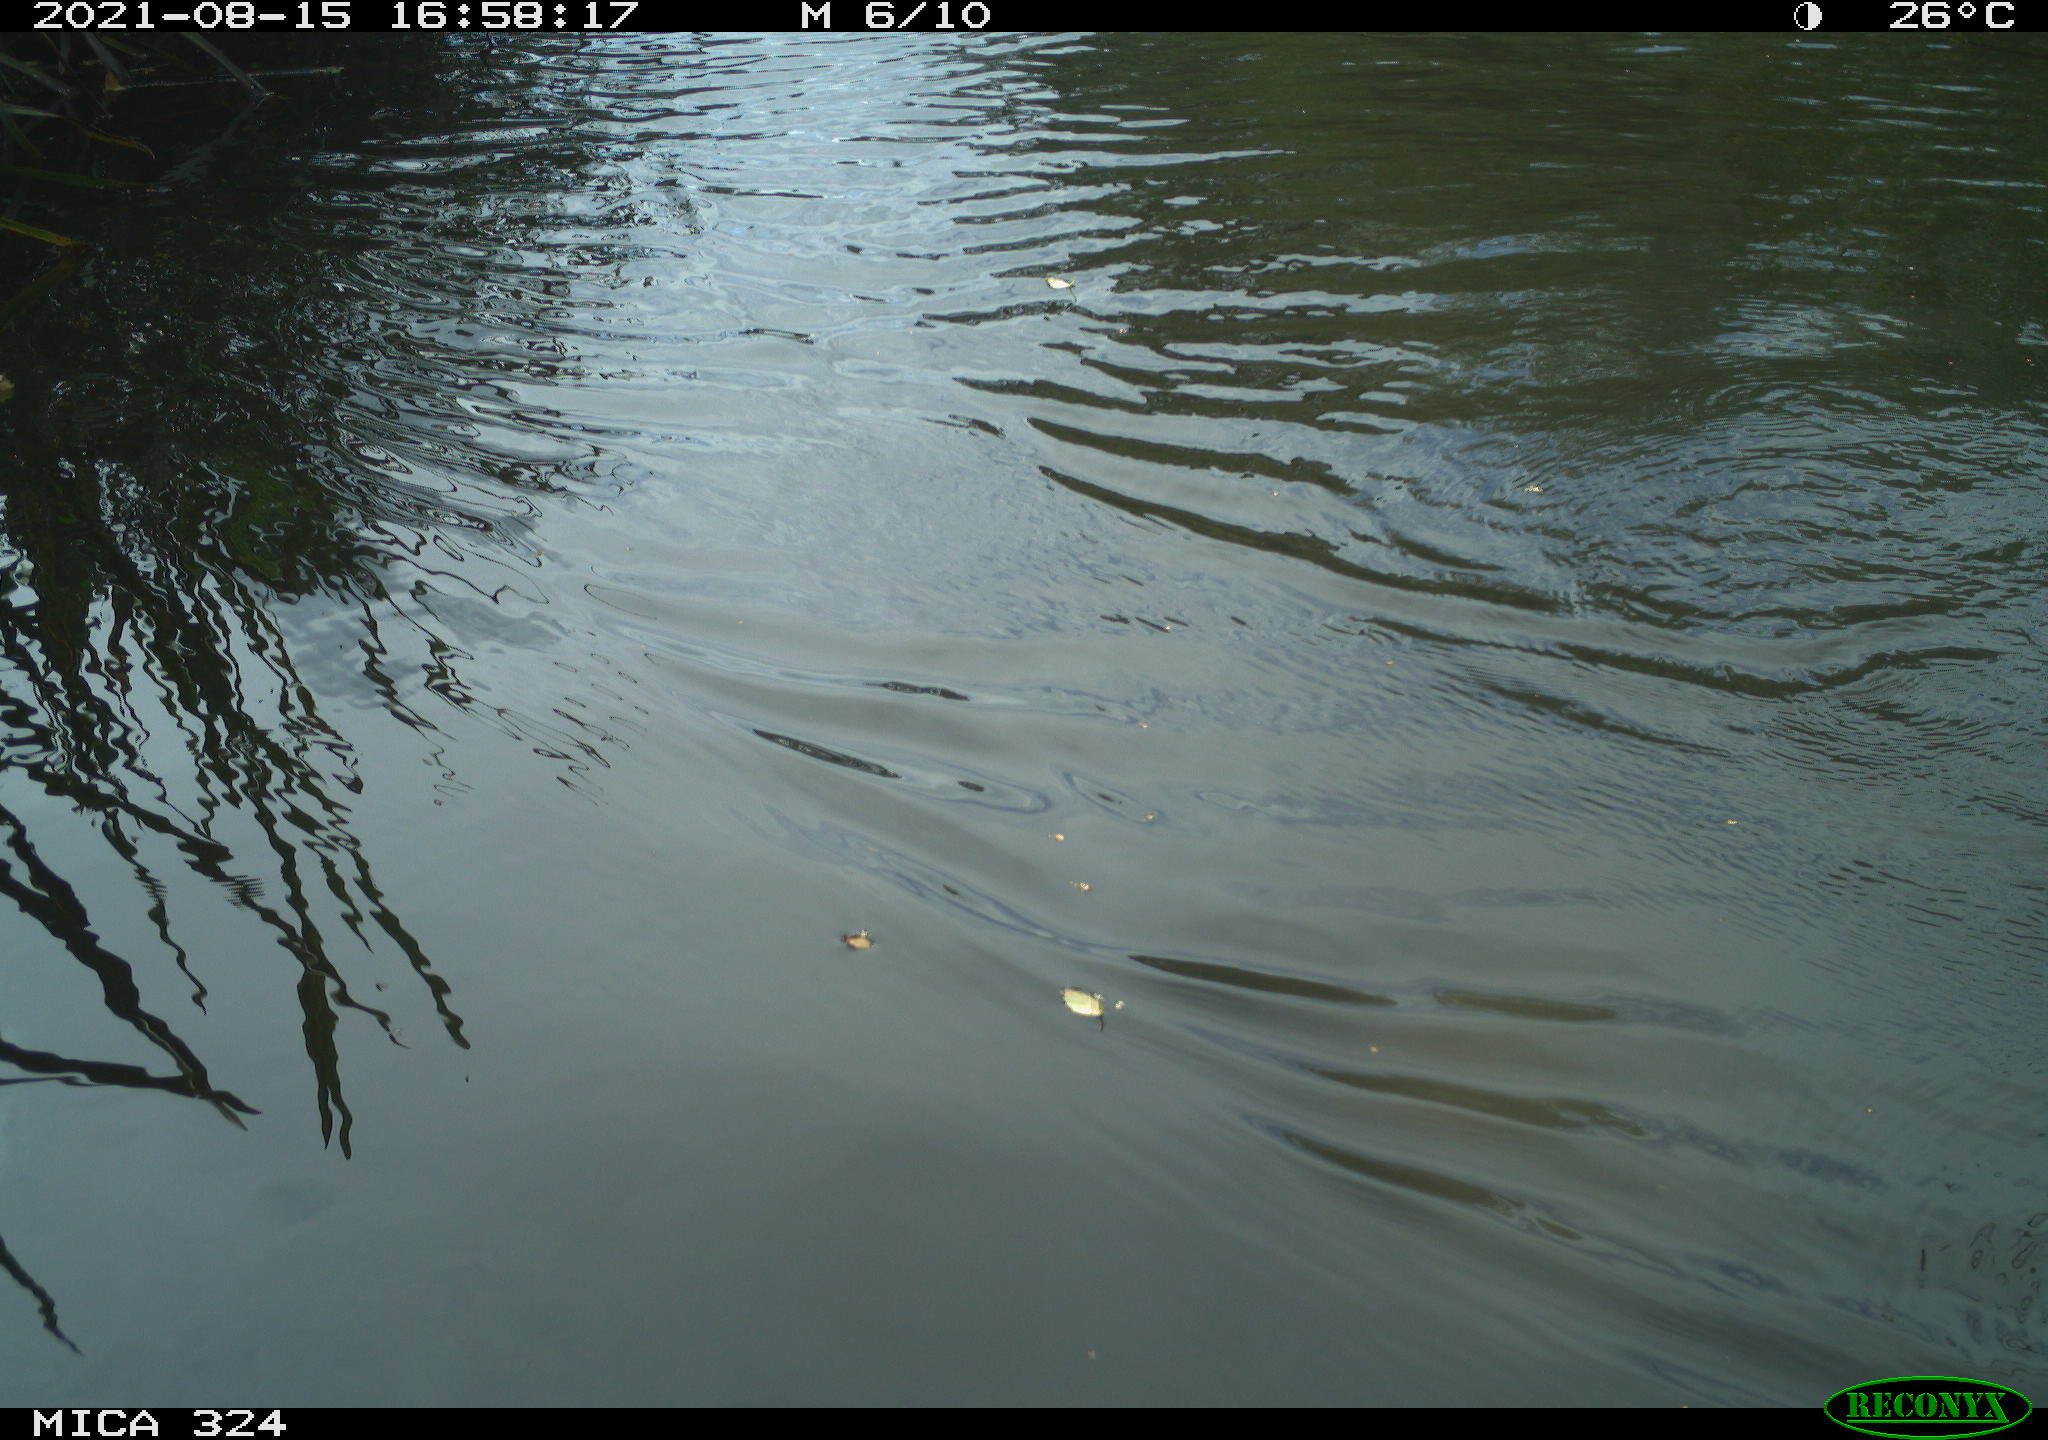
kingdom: Animalia
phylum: Chordata
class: Aves
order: Anseriformes
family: Anatidae
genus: Anas
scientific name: Anas platyrhynchos
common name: Mallard
